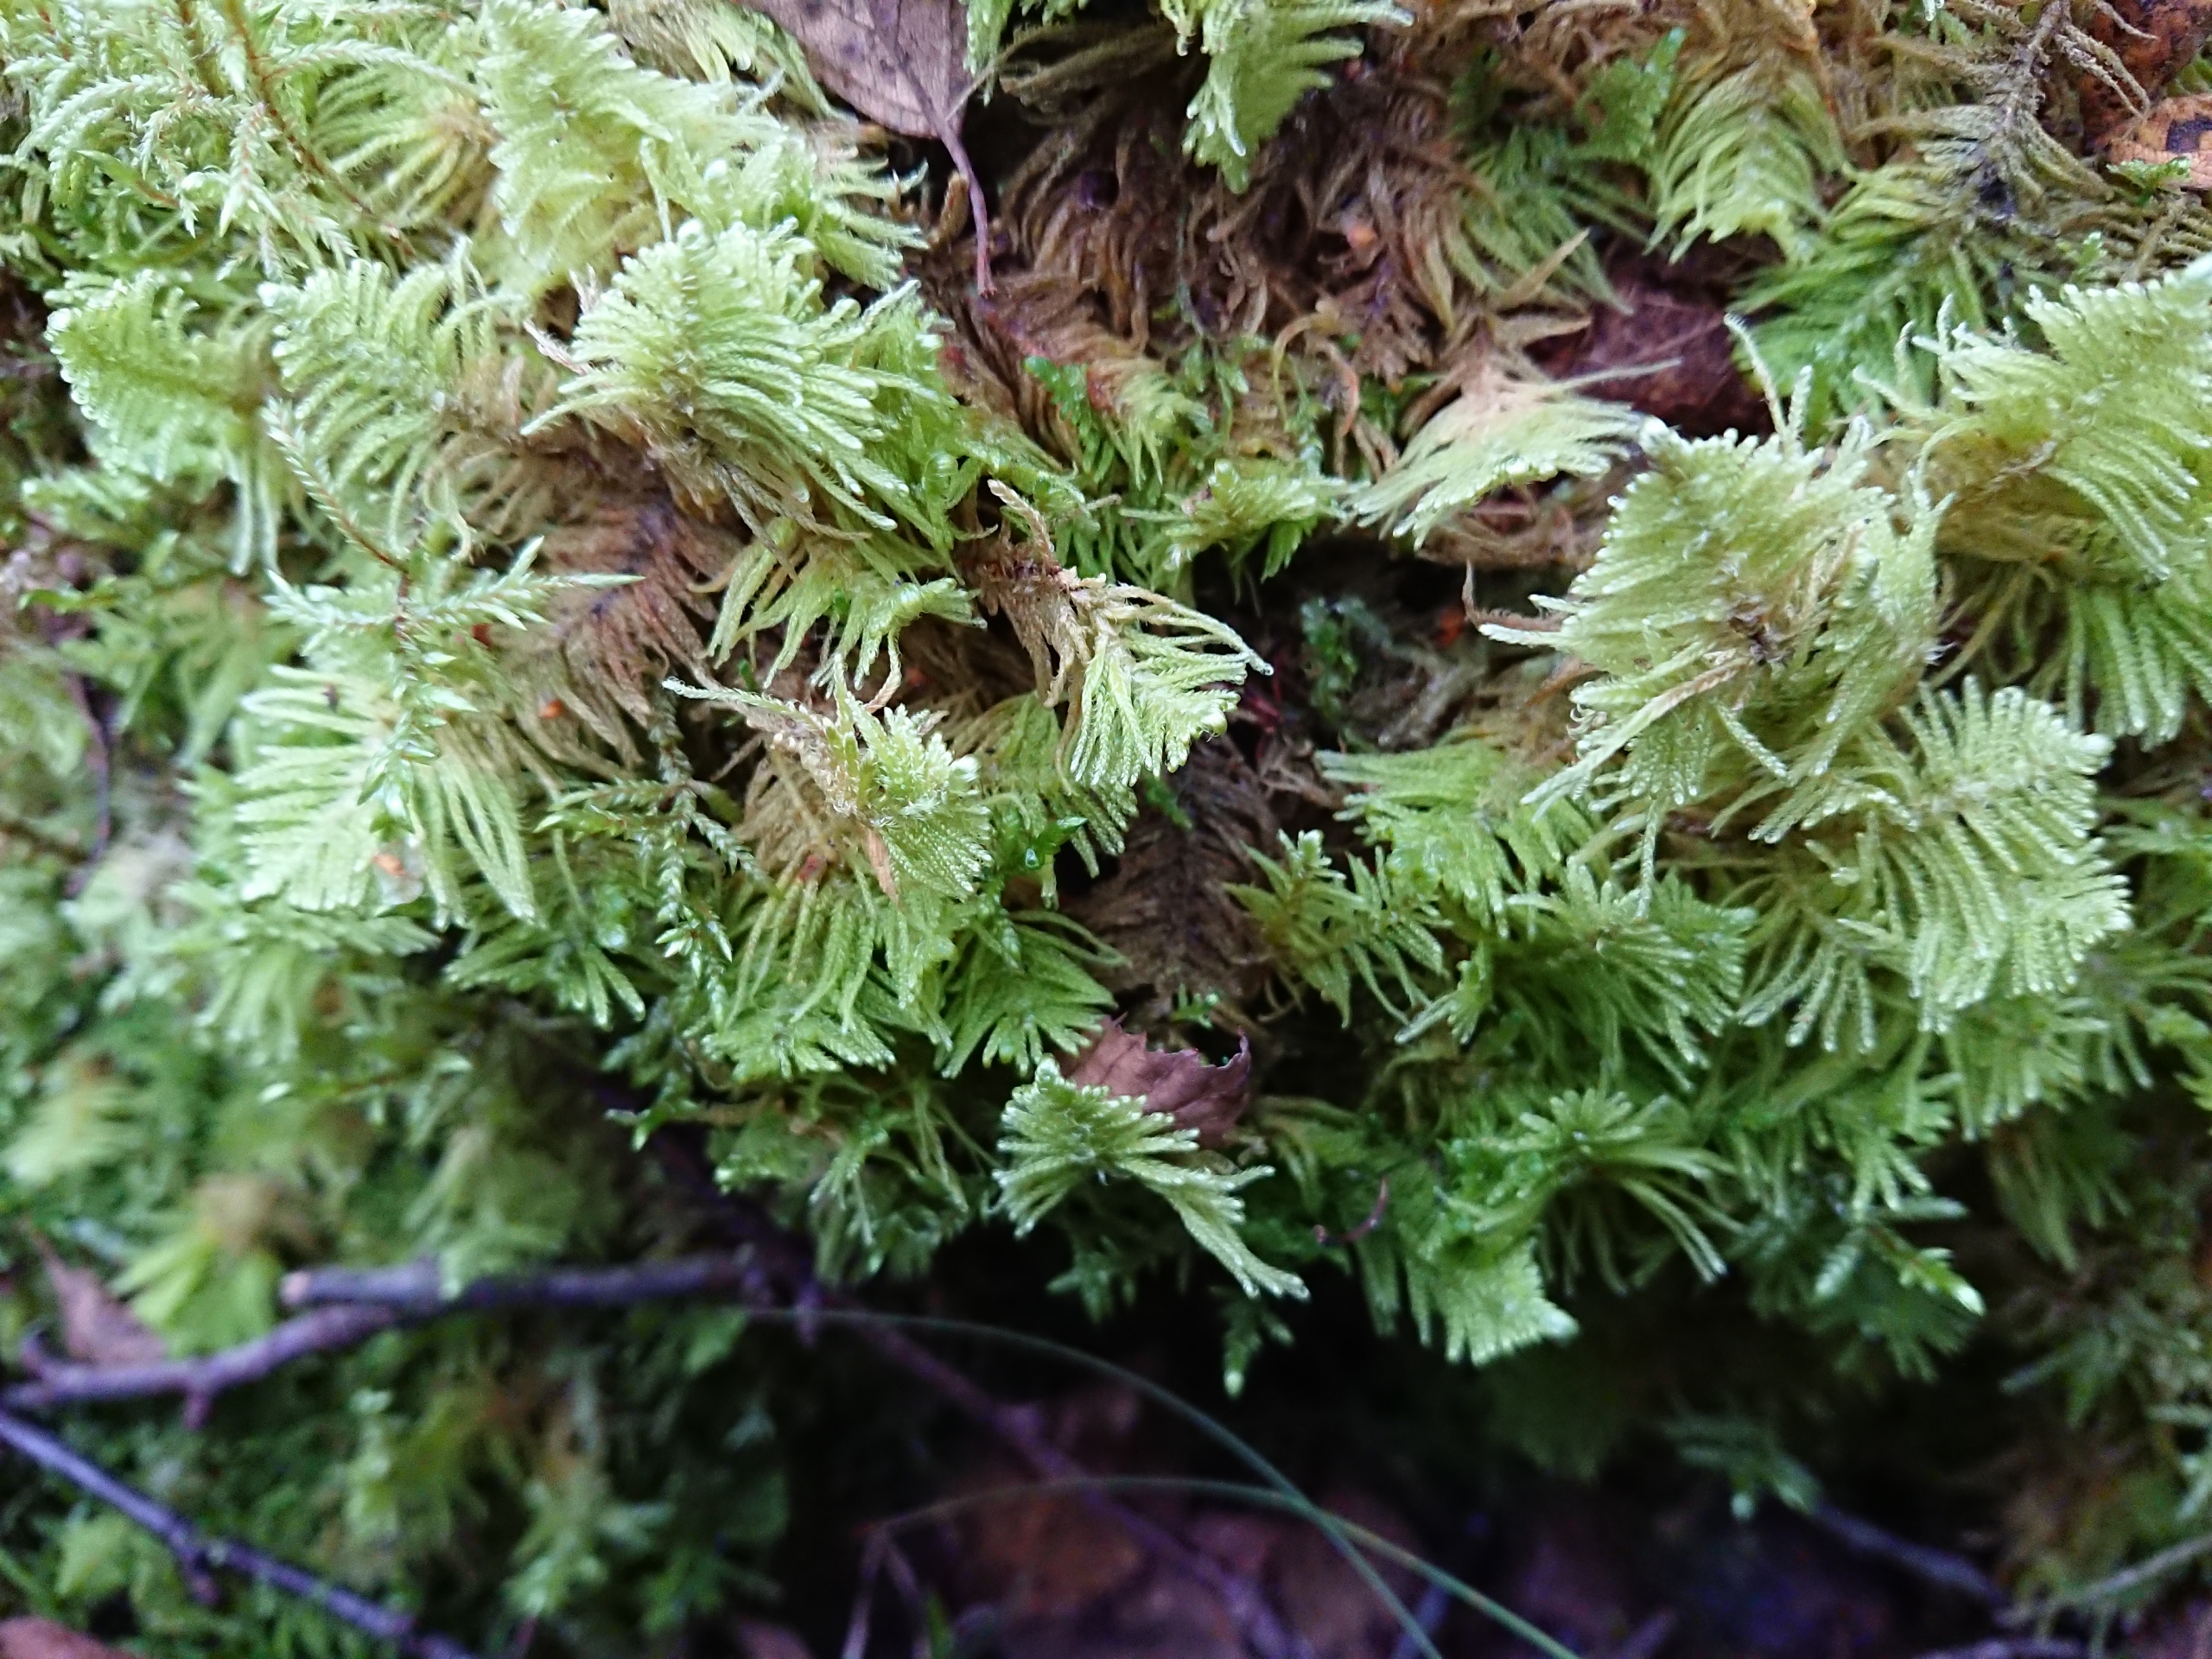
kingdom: Plantae
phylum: Bryophyta
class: Bryopsida
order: Hypnales
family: Pylaisiaceae
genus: Ptilium
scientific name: Ptilium crista-castrensis
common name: Fjer-kammos
